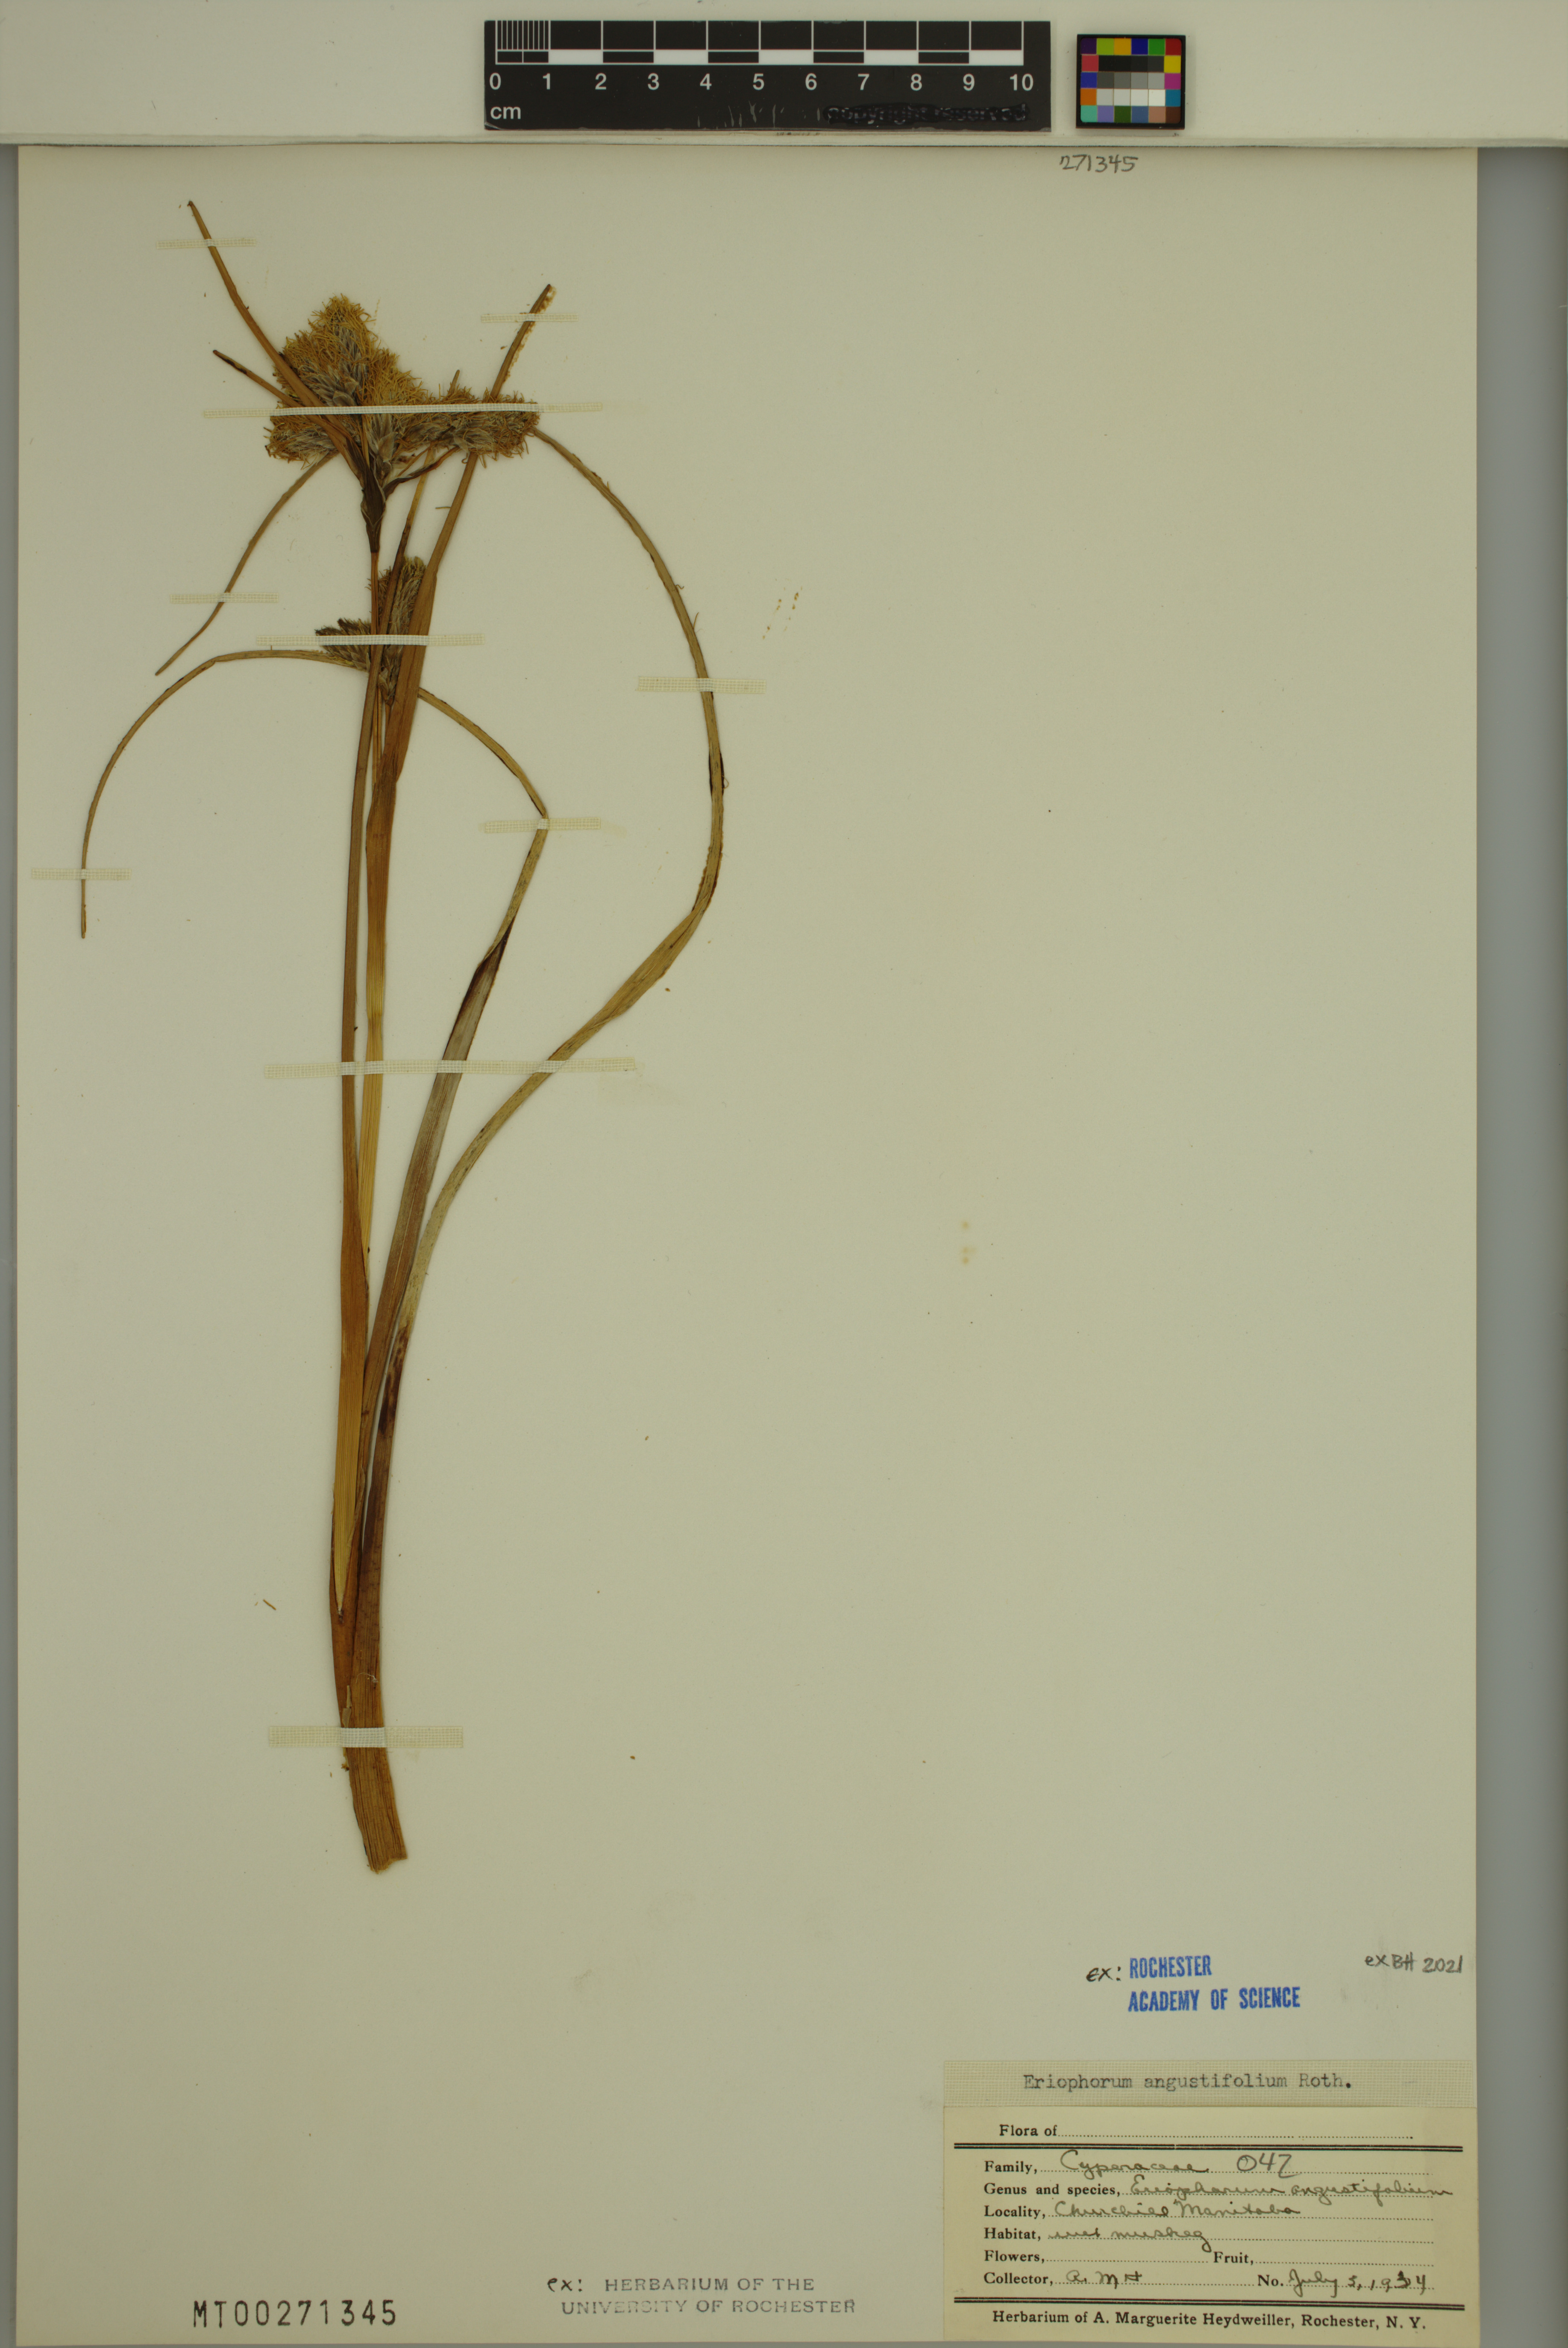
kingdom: Plantae
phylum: Tracheophyta
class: Liliopsida
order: Poales
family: Cyperaceae
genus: Eriophorum
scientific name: Eriophorum angustifolium
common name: Common cottongrass
